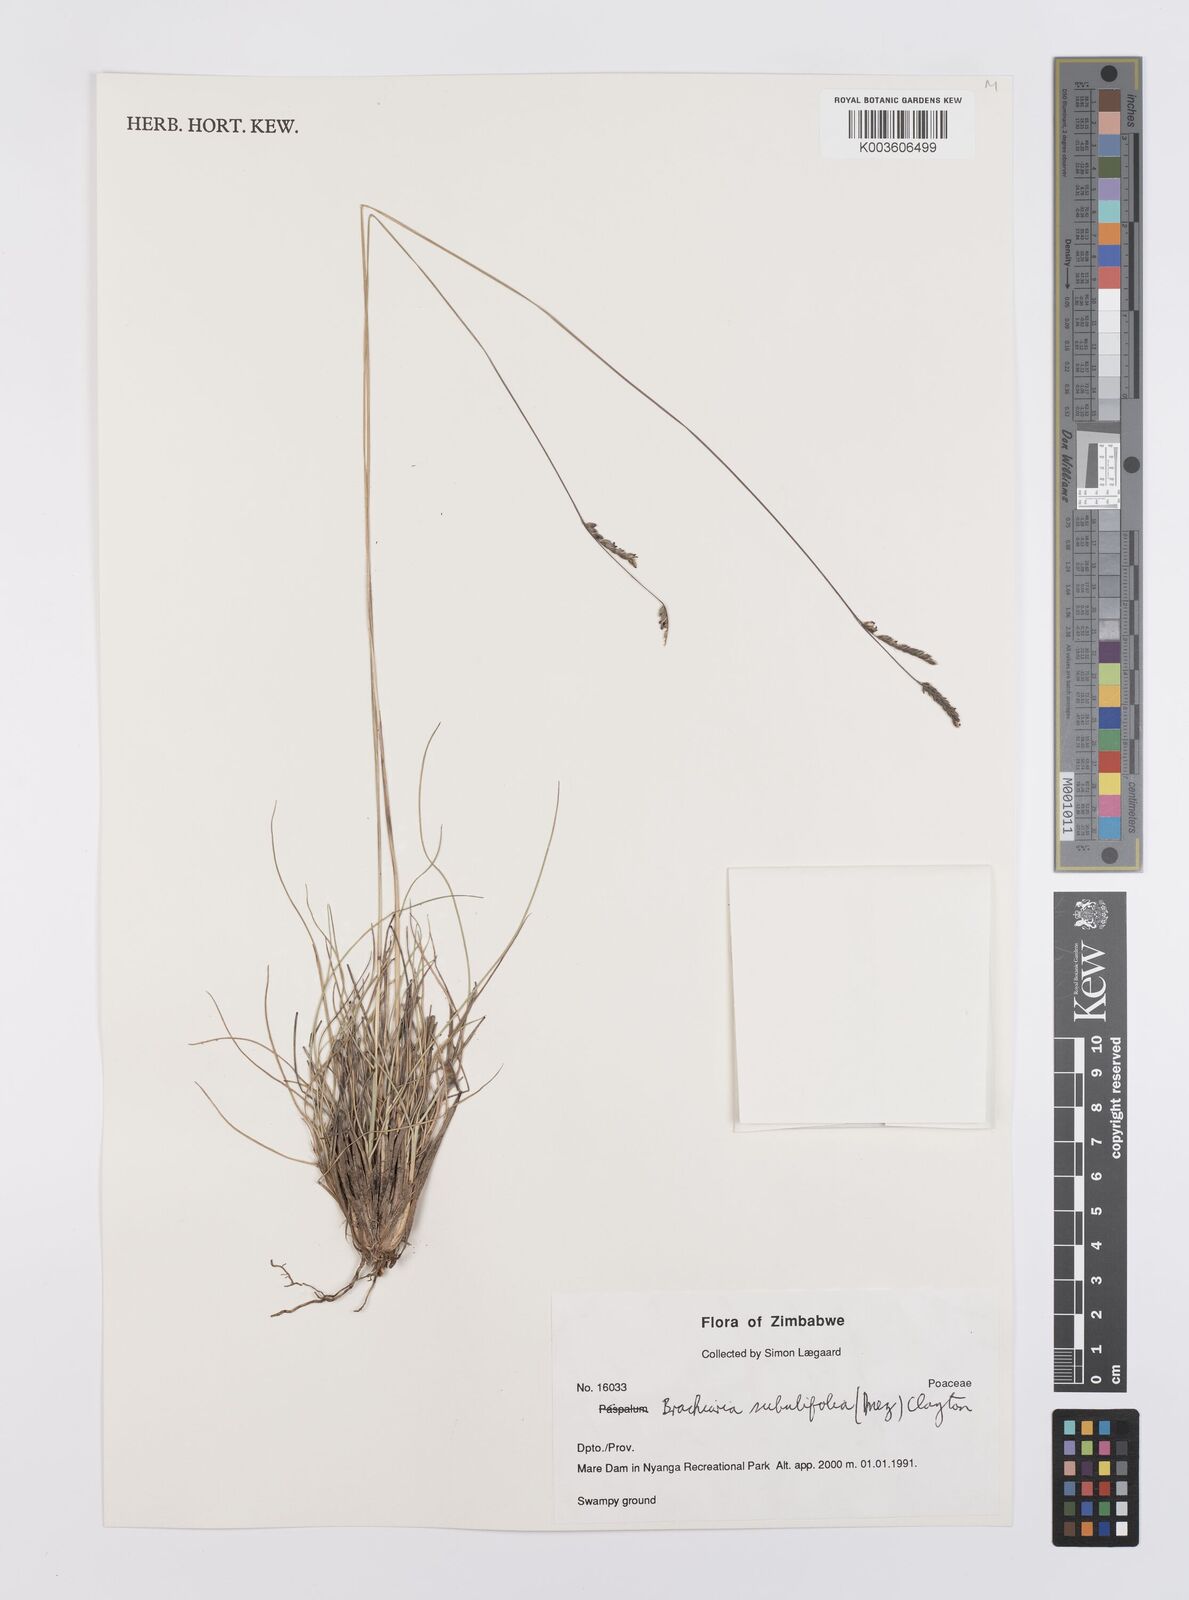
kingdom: Plantae
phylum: Tracheophyta
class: Liliopsida
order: Poales
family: Poaceae
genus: Urochloa
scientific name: Urochloa subulifolia
